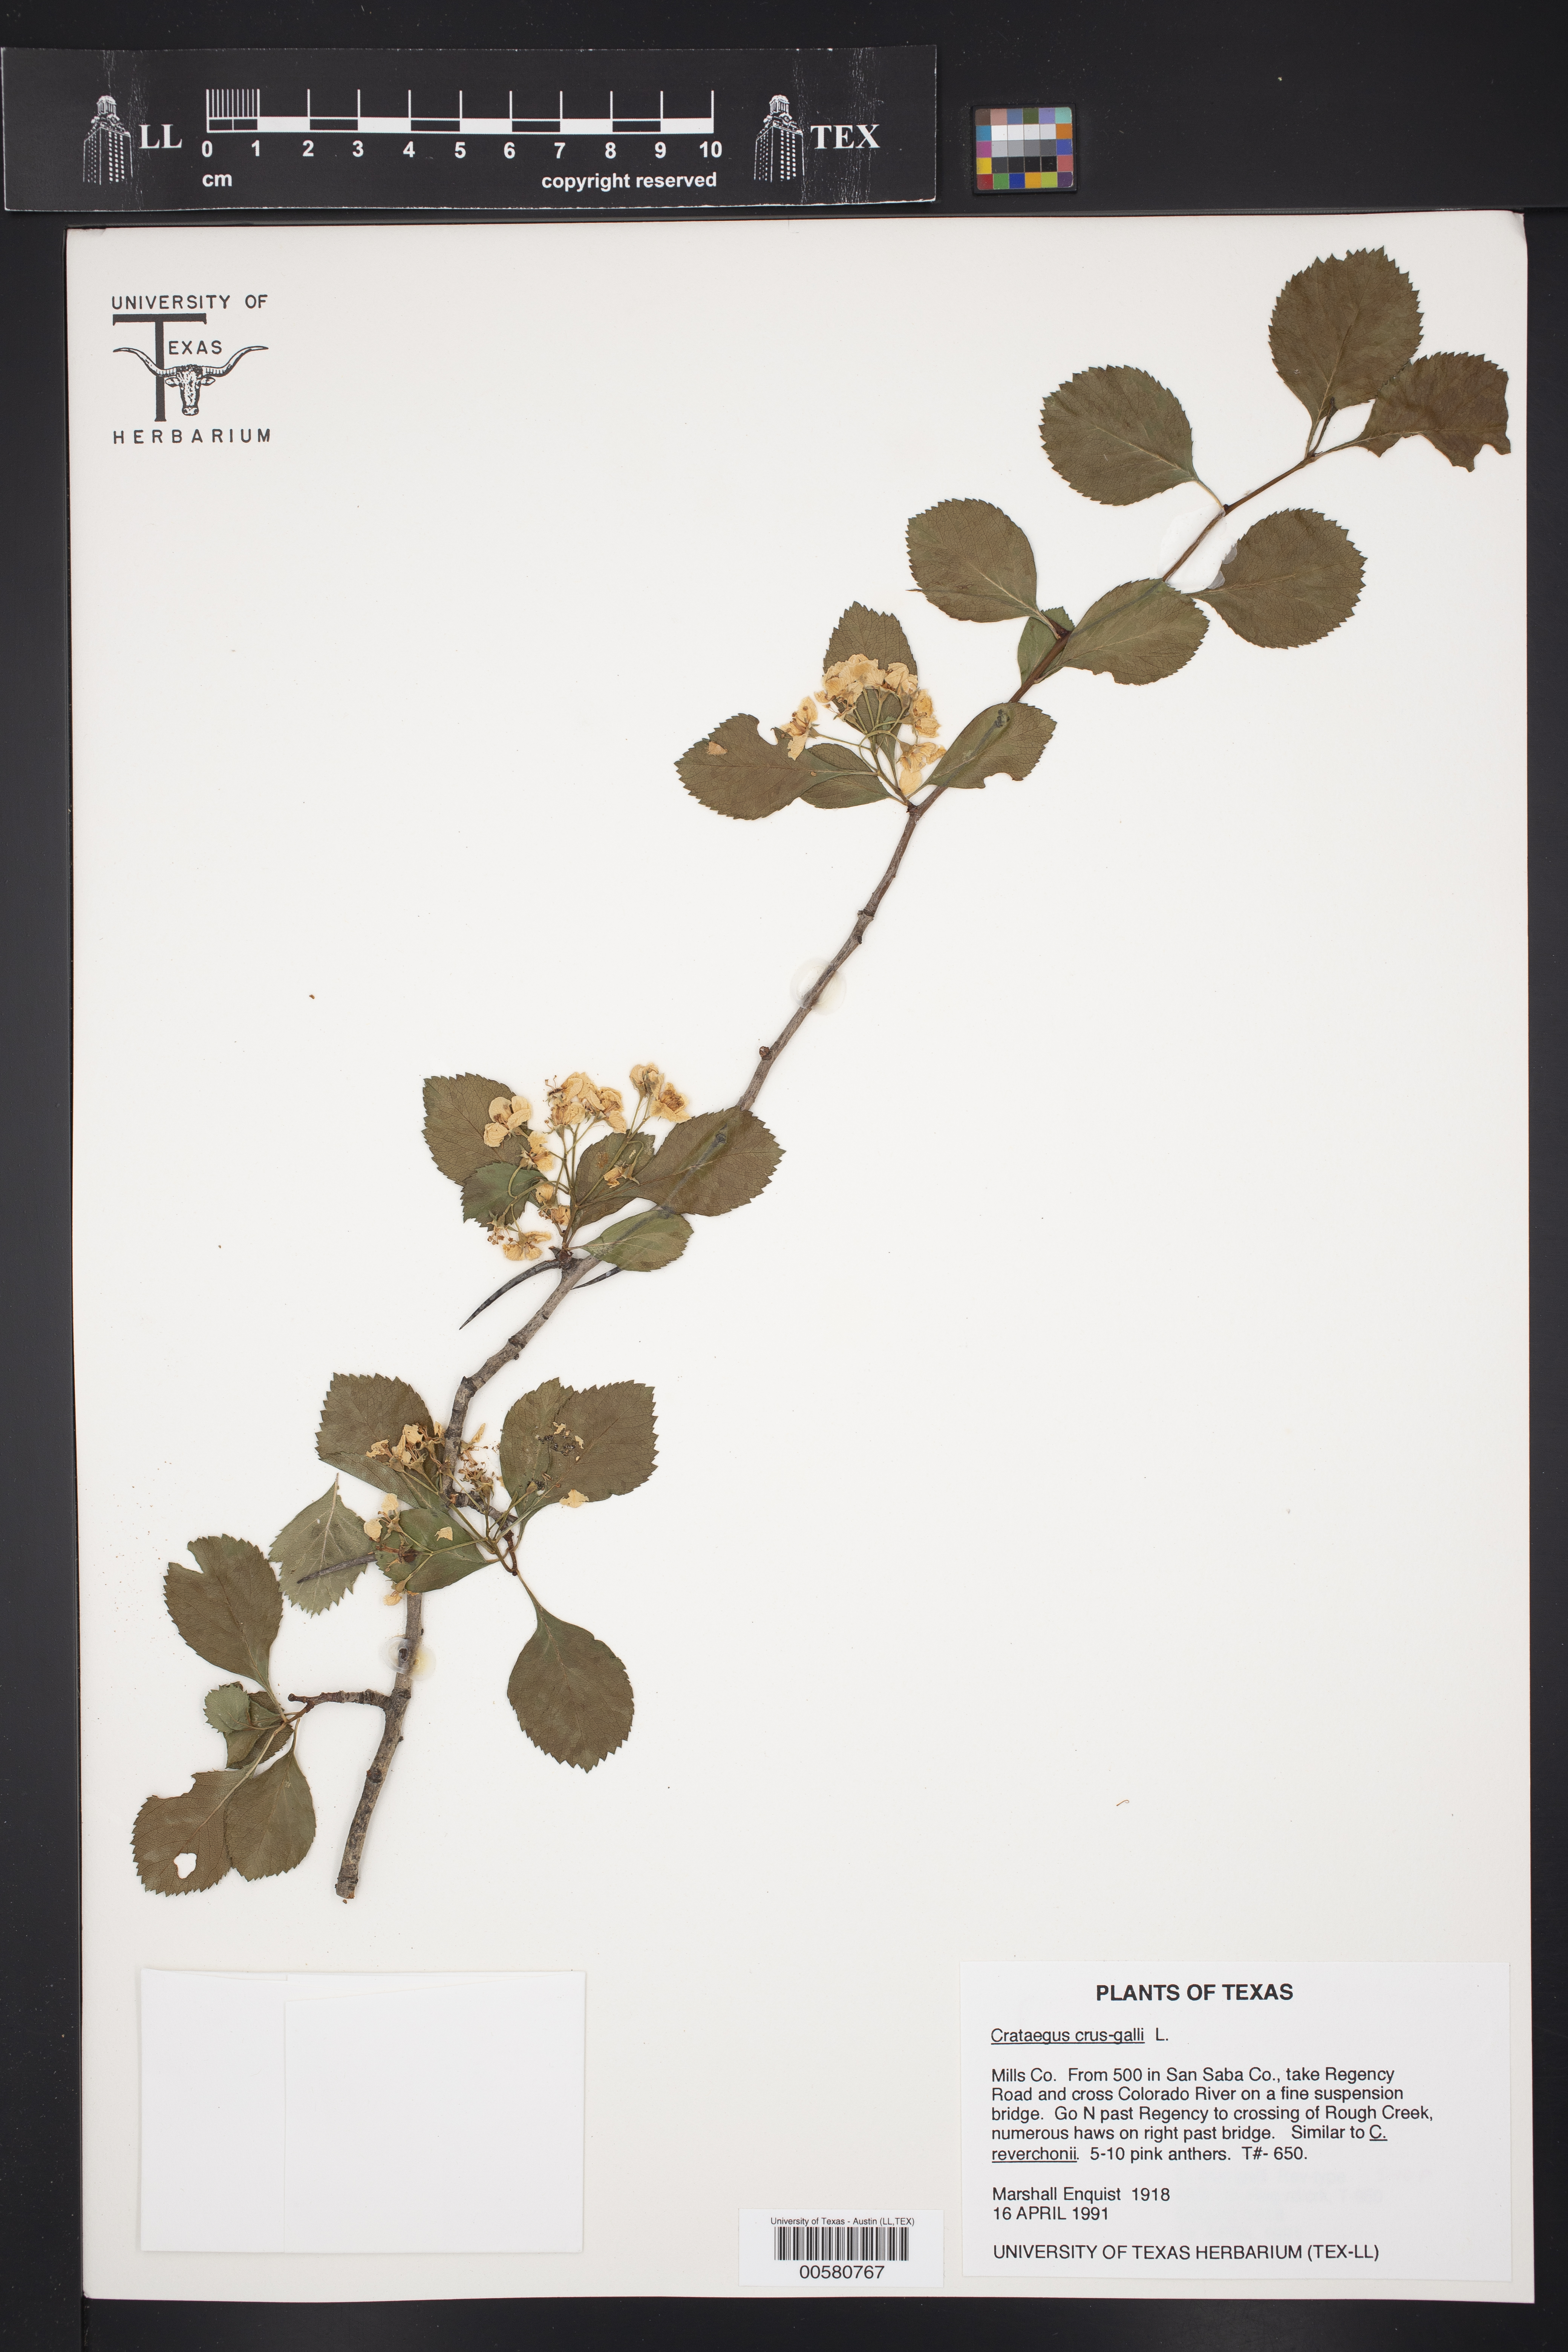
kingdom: Plantae
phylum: Tracheophyta
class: Magnoliopsida
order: Rosales
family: Rosaceae
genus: Crataegus
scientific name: Crataegus crus-galli
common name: Cockspurthorn
